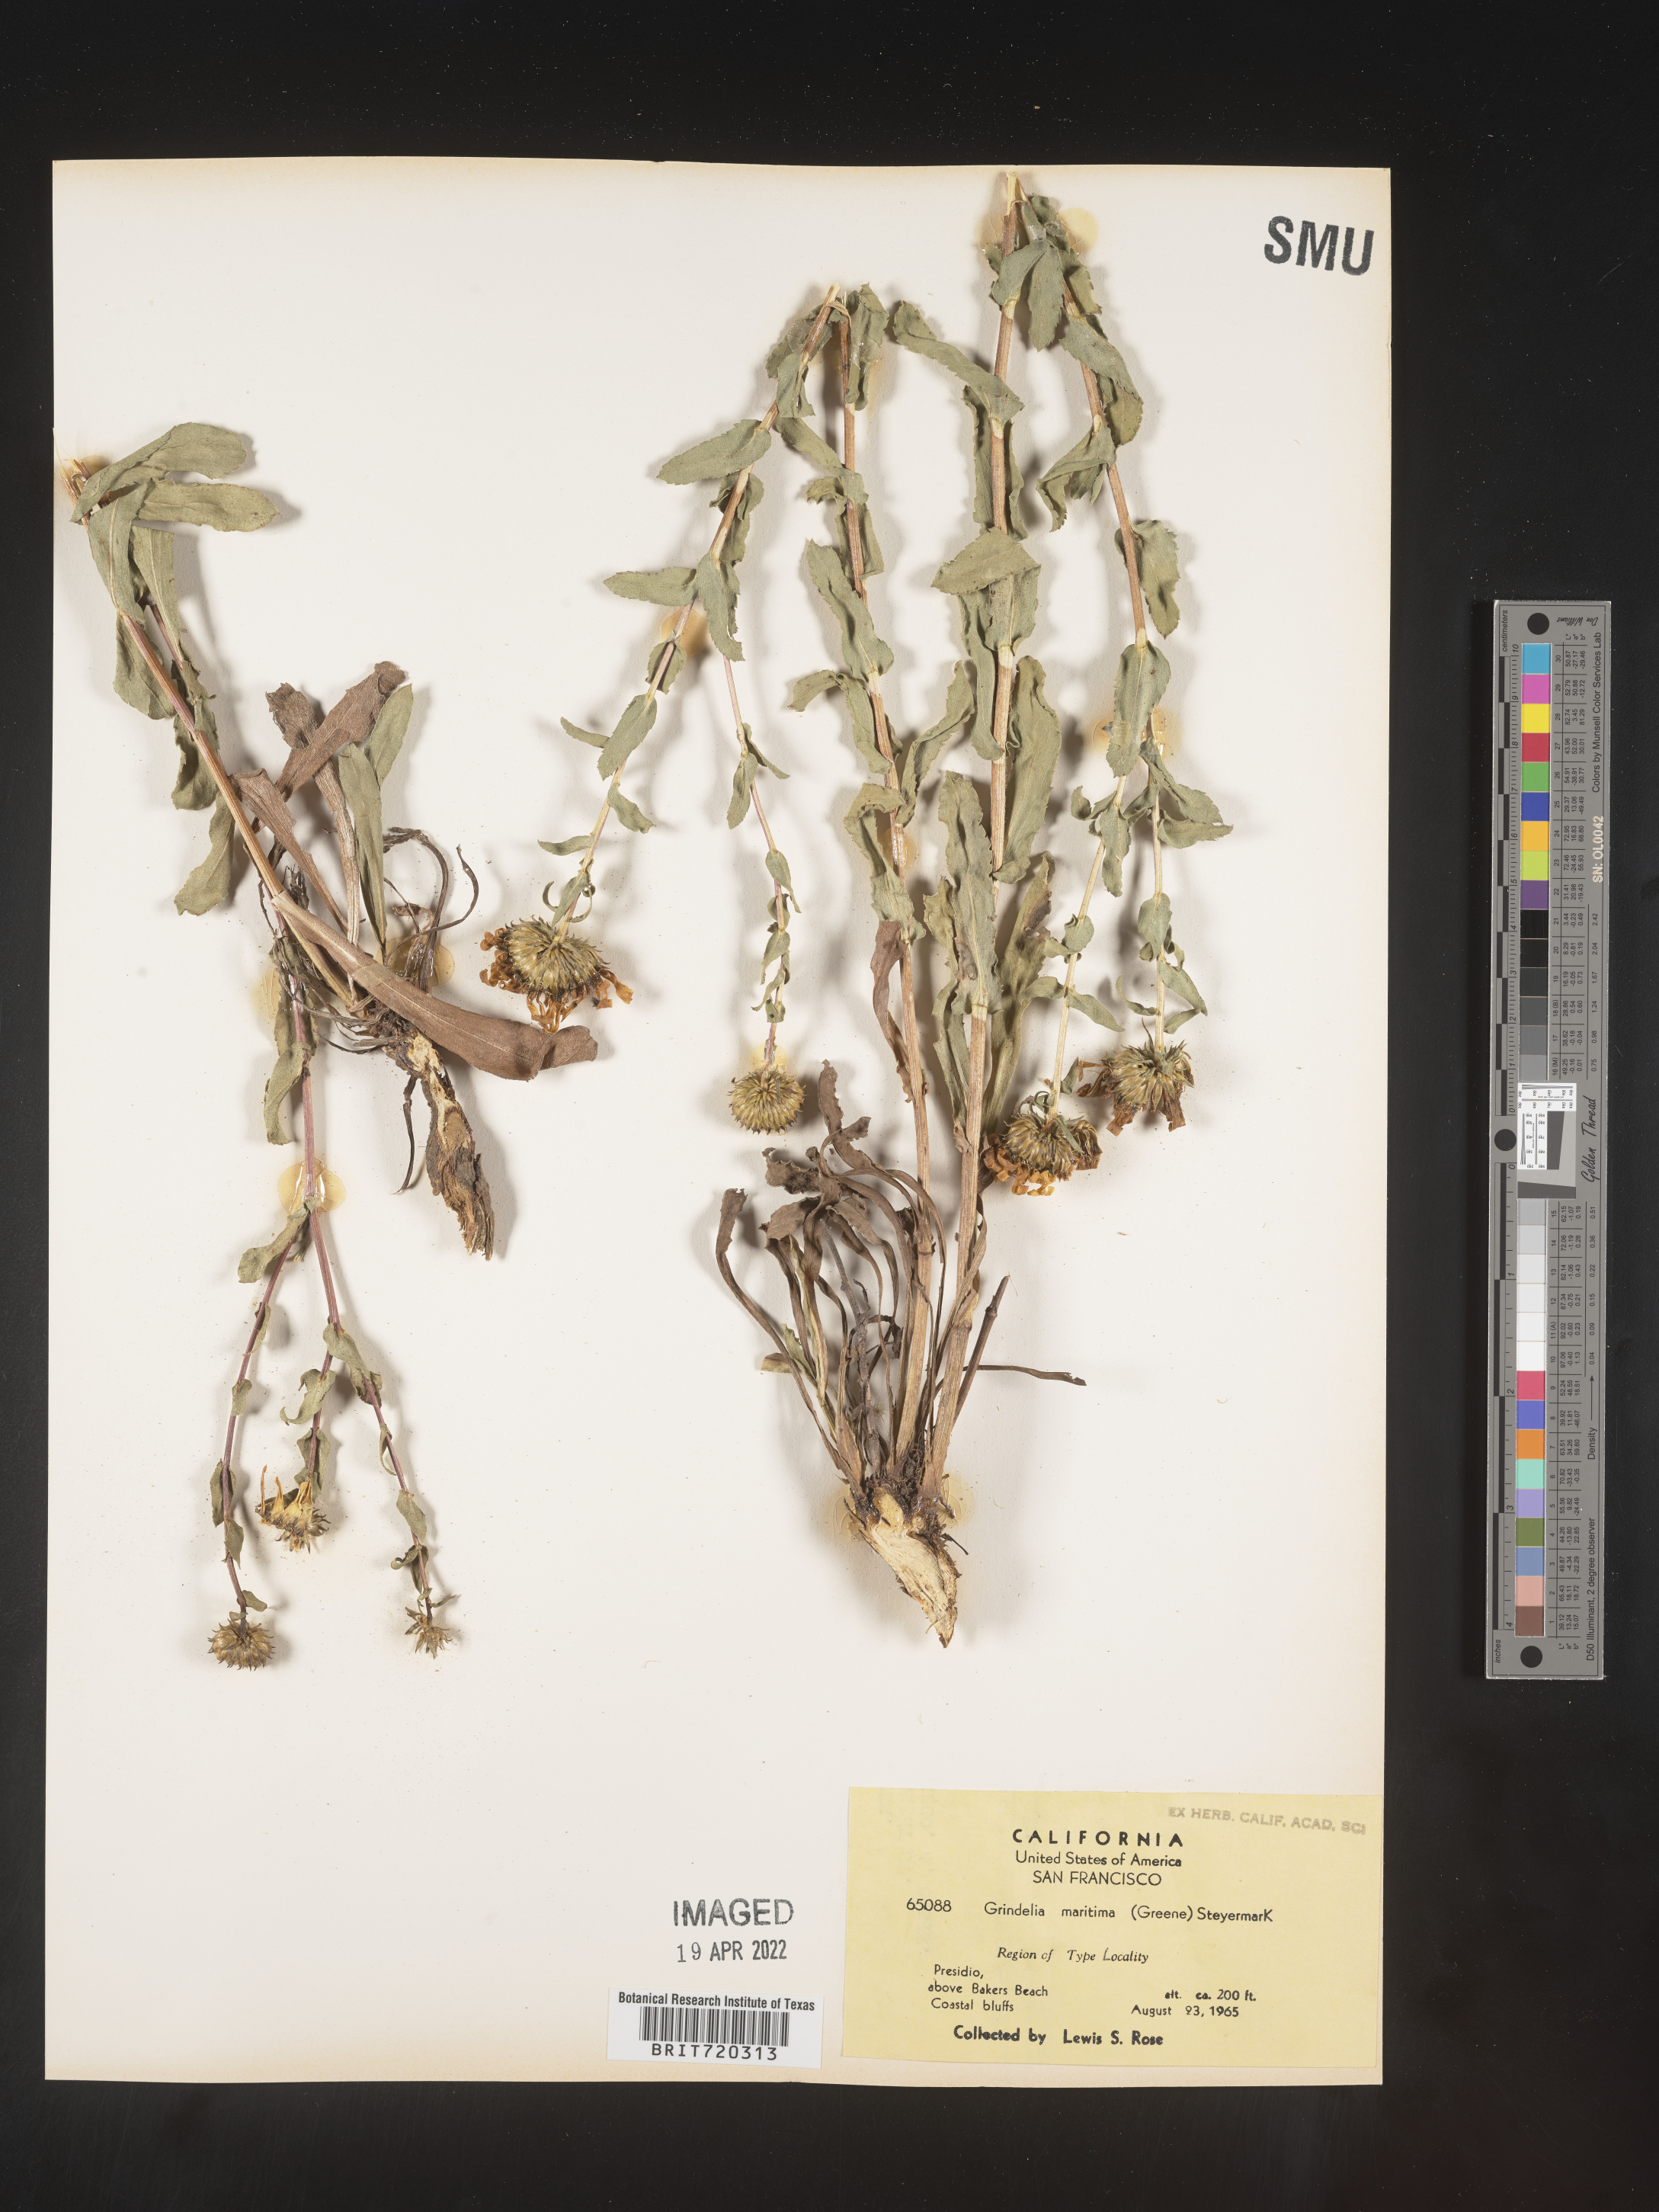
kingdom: Plantae
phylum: Tracheophyta
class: Magnoliopsida
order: Asterales
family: Asteraceae
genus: Grindelia
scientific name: Grindelia hirsutula
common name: Hairy gumweed
